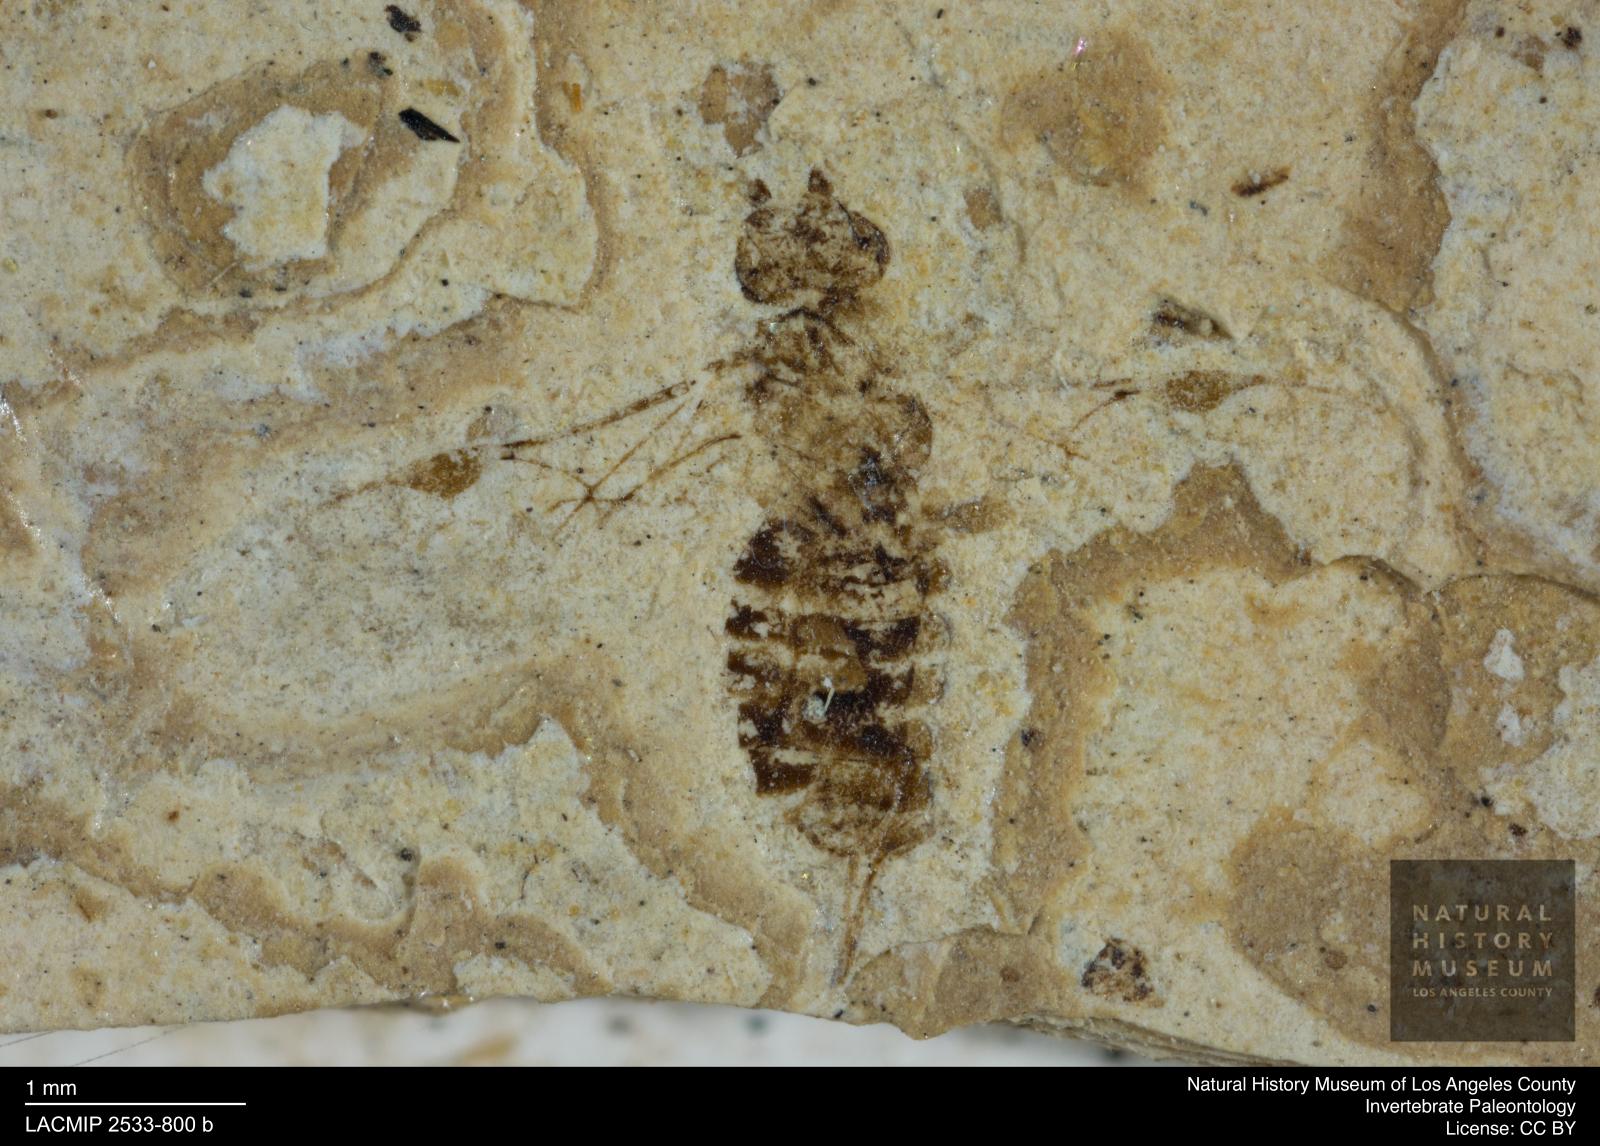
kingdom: Animalia
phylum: Arthropoda
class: Insecta
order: Hymenoptera
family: Braconidae
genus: Doryctes
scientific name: Doryctes longulus
